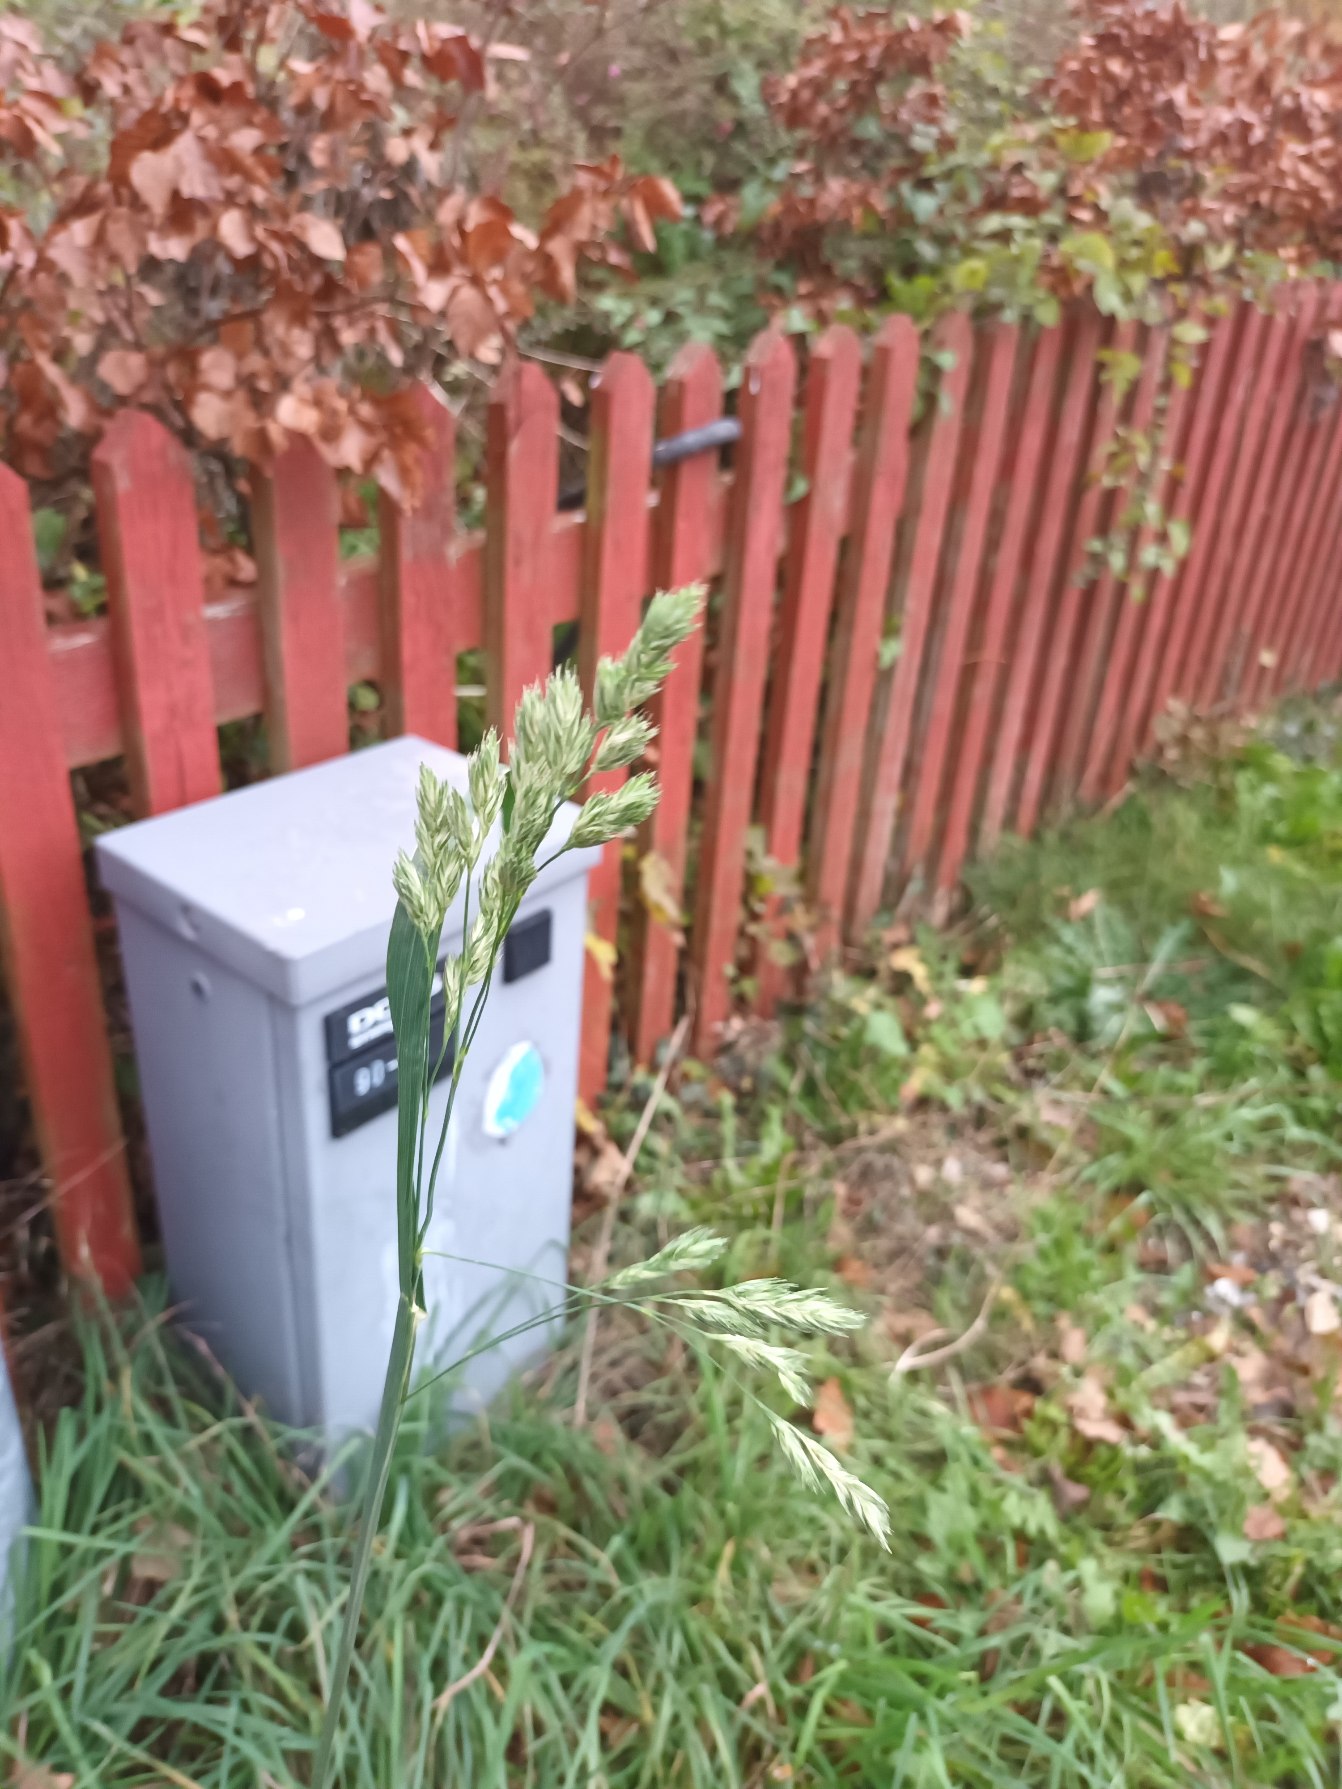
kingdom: Plantae
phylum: Tracheophyta
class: Liliopsida
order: Poales
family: Poaceae
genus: Dactylis
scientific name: Dactylis glomerata
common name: Almindelig hundegræs
